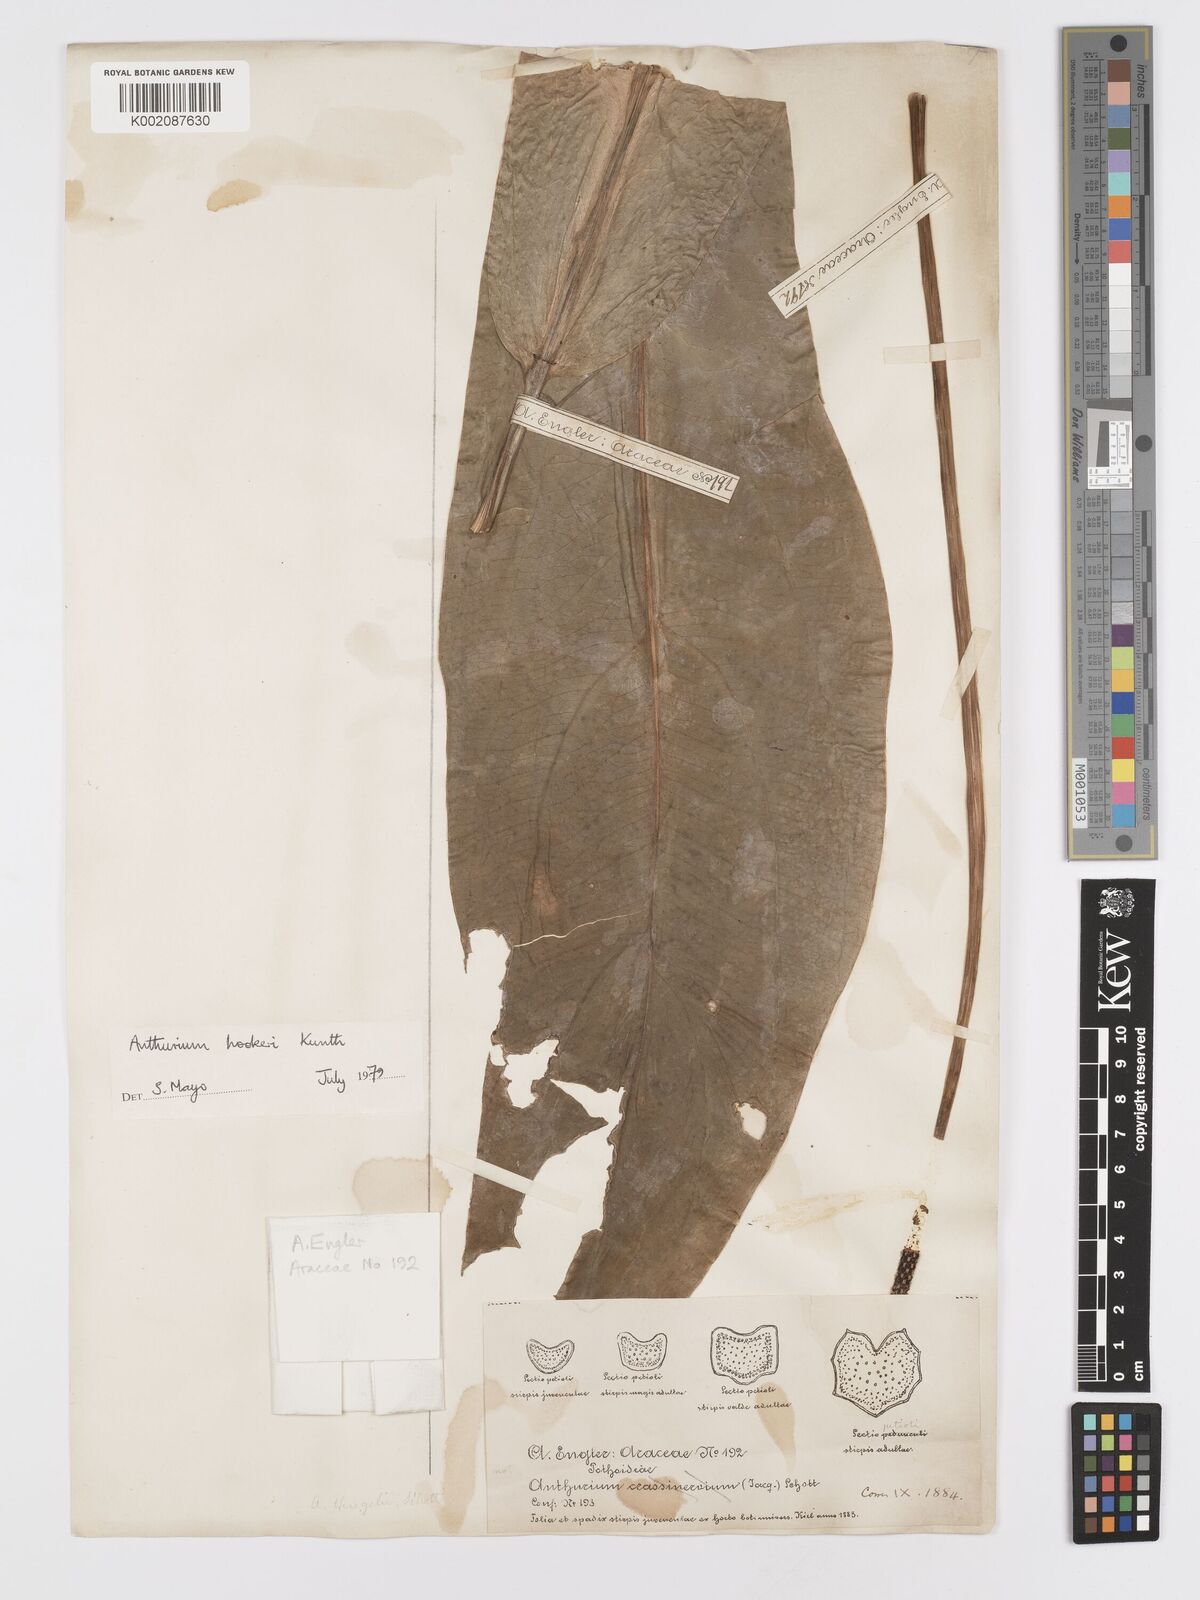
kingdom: Plantae
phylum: Tracheophyta
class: Liliopsida
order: Alismatales
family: Araceae
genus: Anthurium
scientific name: Anthurium hookeri
